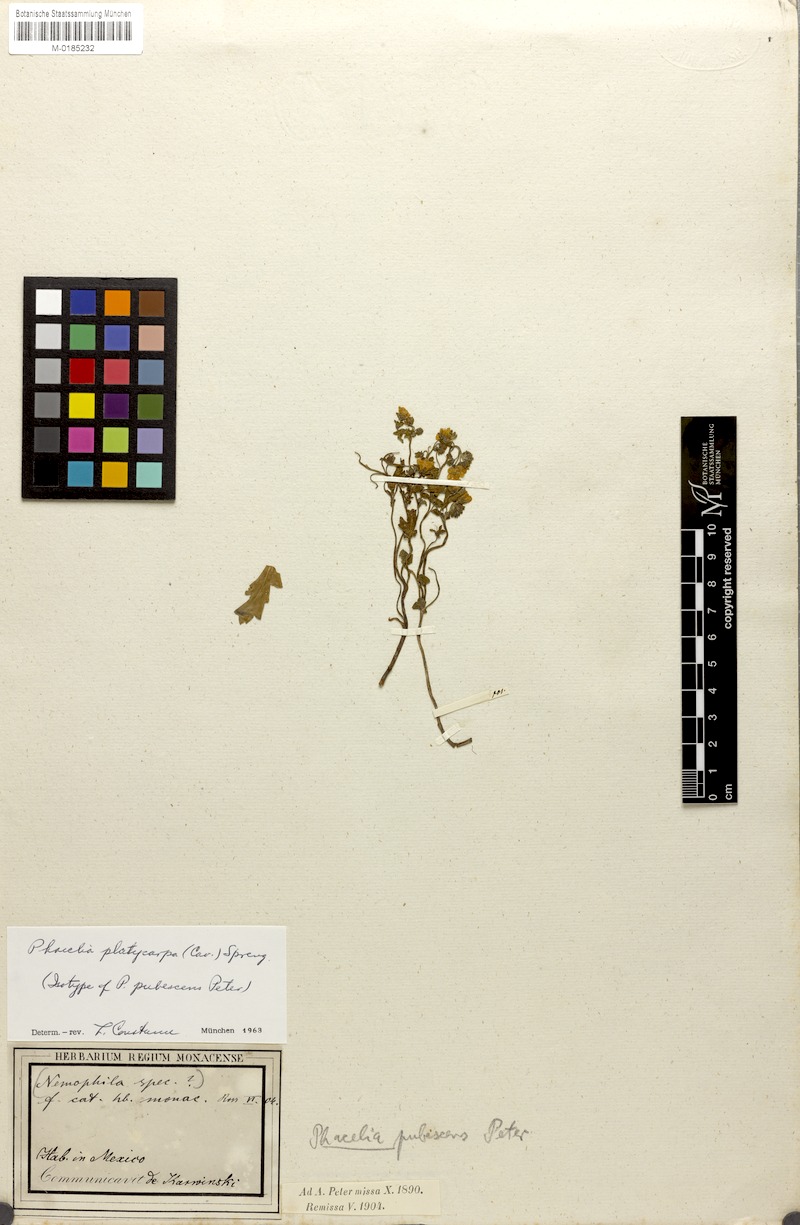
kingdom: Plantae
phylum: Tracheophyta
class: Magnoliopsida
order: Boraginales
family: Hydrophyllaceae
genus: Phacelia
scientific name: Phacelia platycarpa
